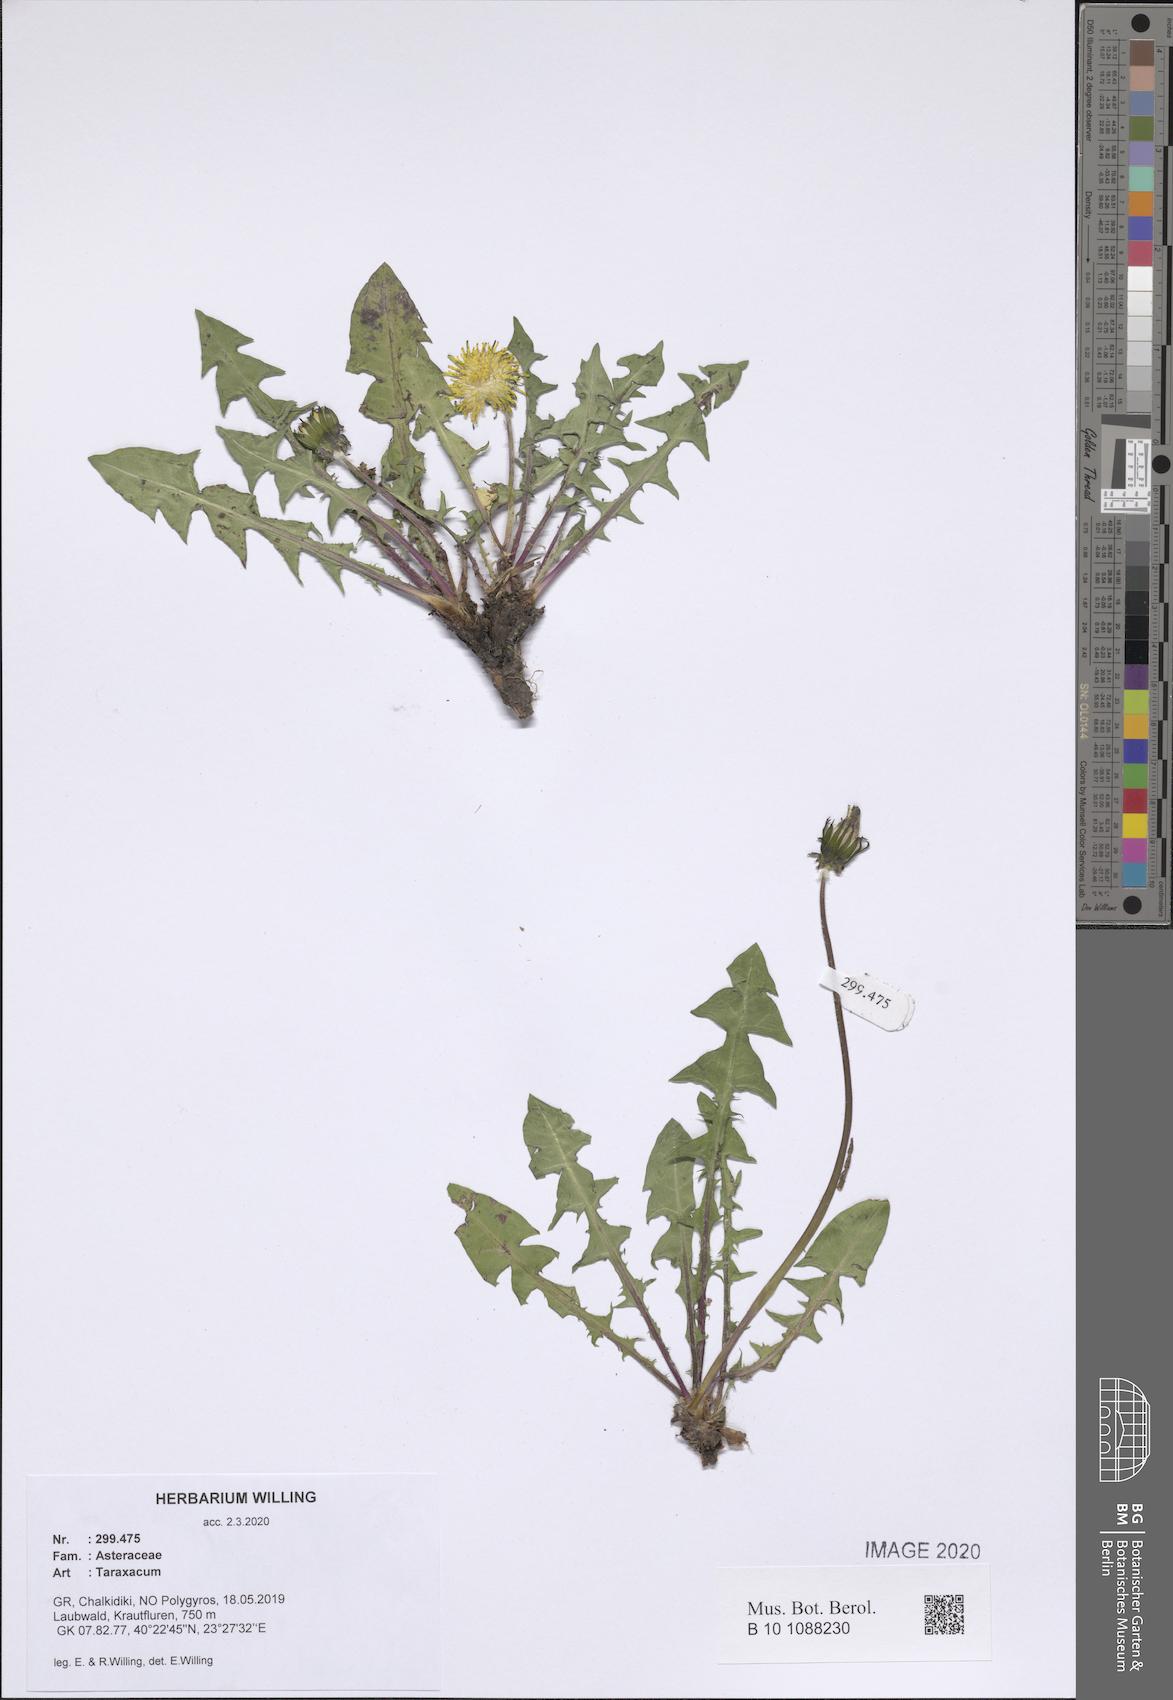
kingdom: Plantae
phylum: Tracheophyta
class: Magnoliopsida
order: Asterales
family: Asteraceae
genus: Taraxacum
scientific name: Taraxacum
